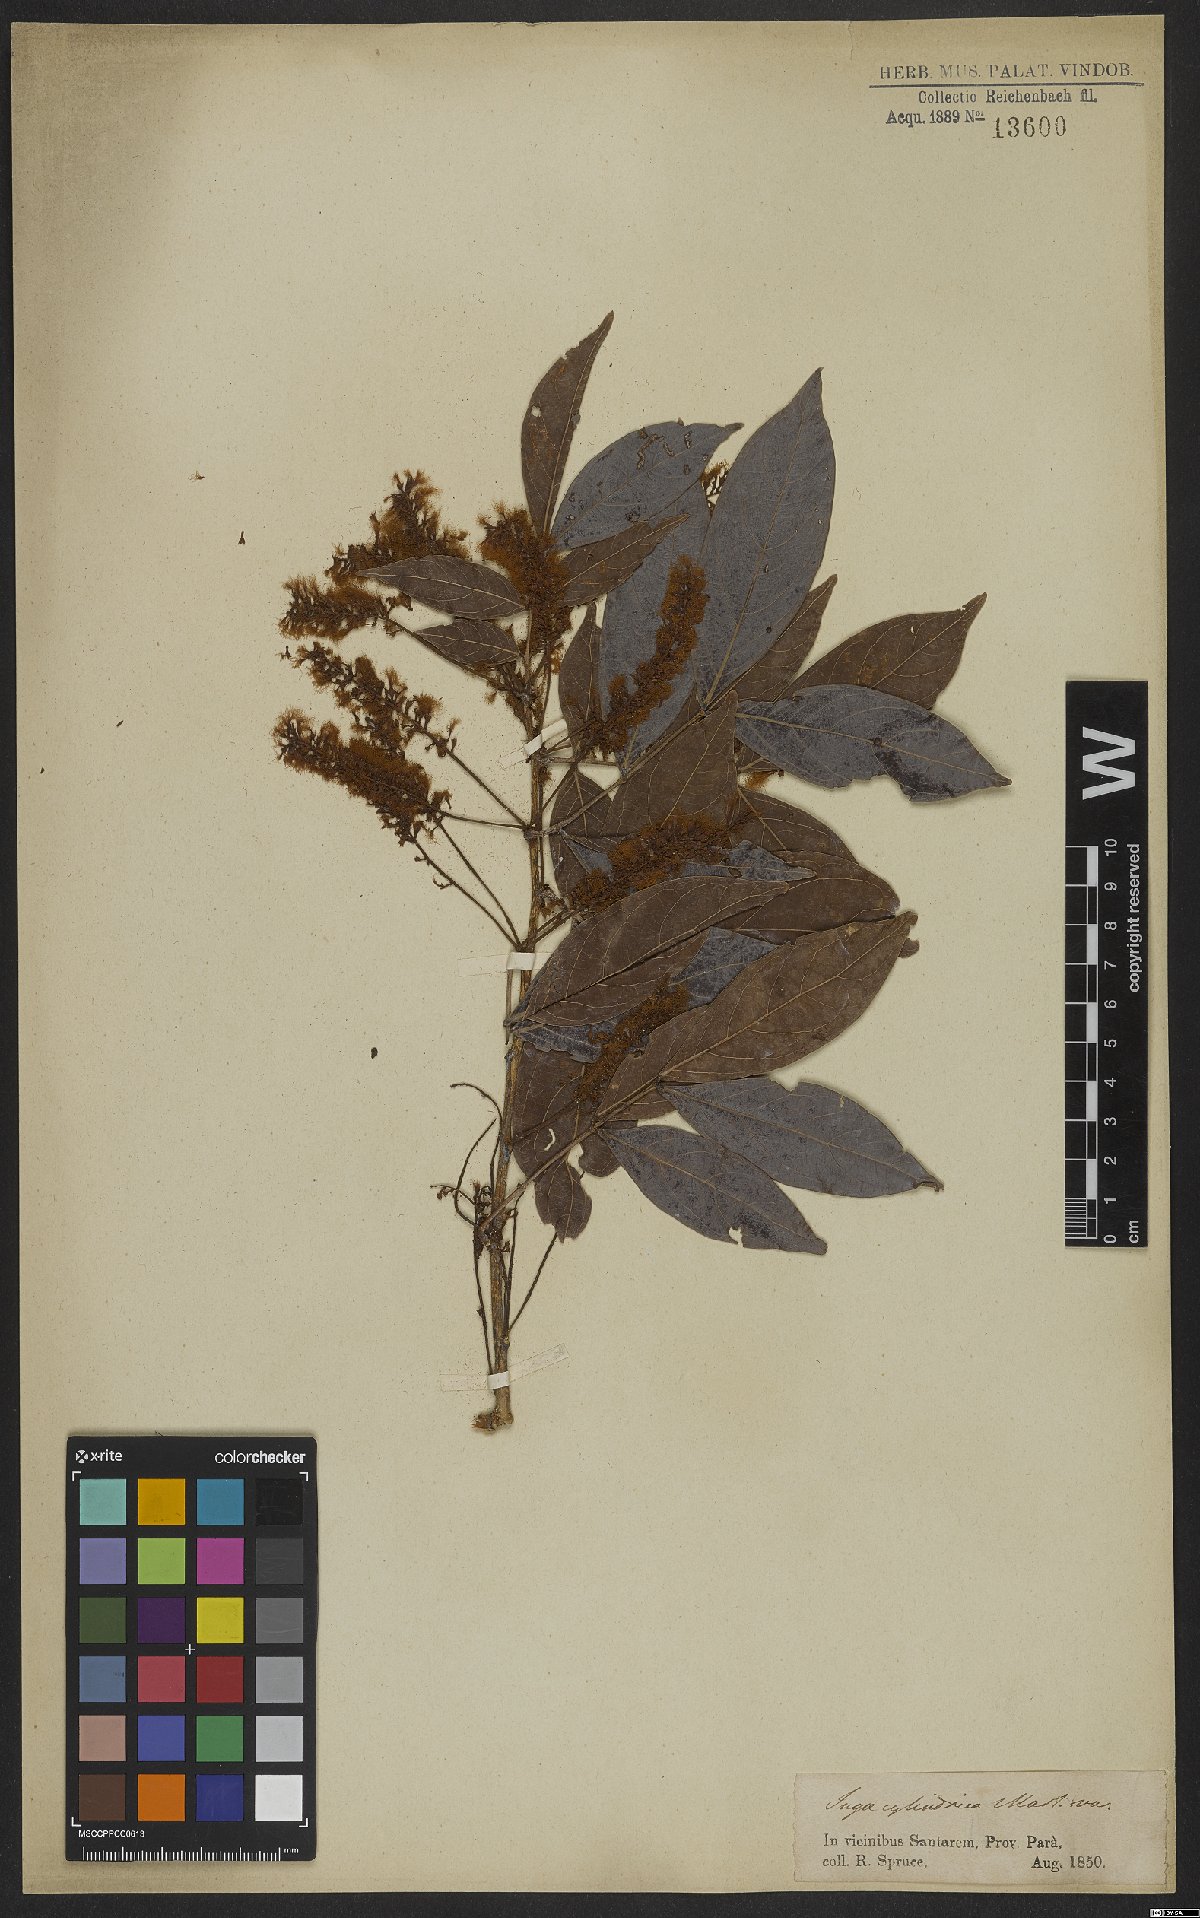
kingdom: Plantae
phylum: Tracheophyta
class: Magnoliopsida
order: Fabales
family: Fabaceae
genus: Inga
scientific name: Inga cylindrica
